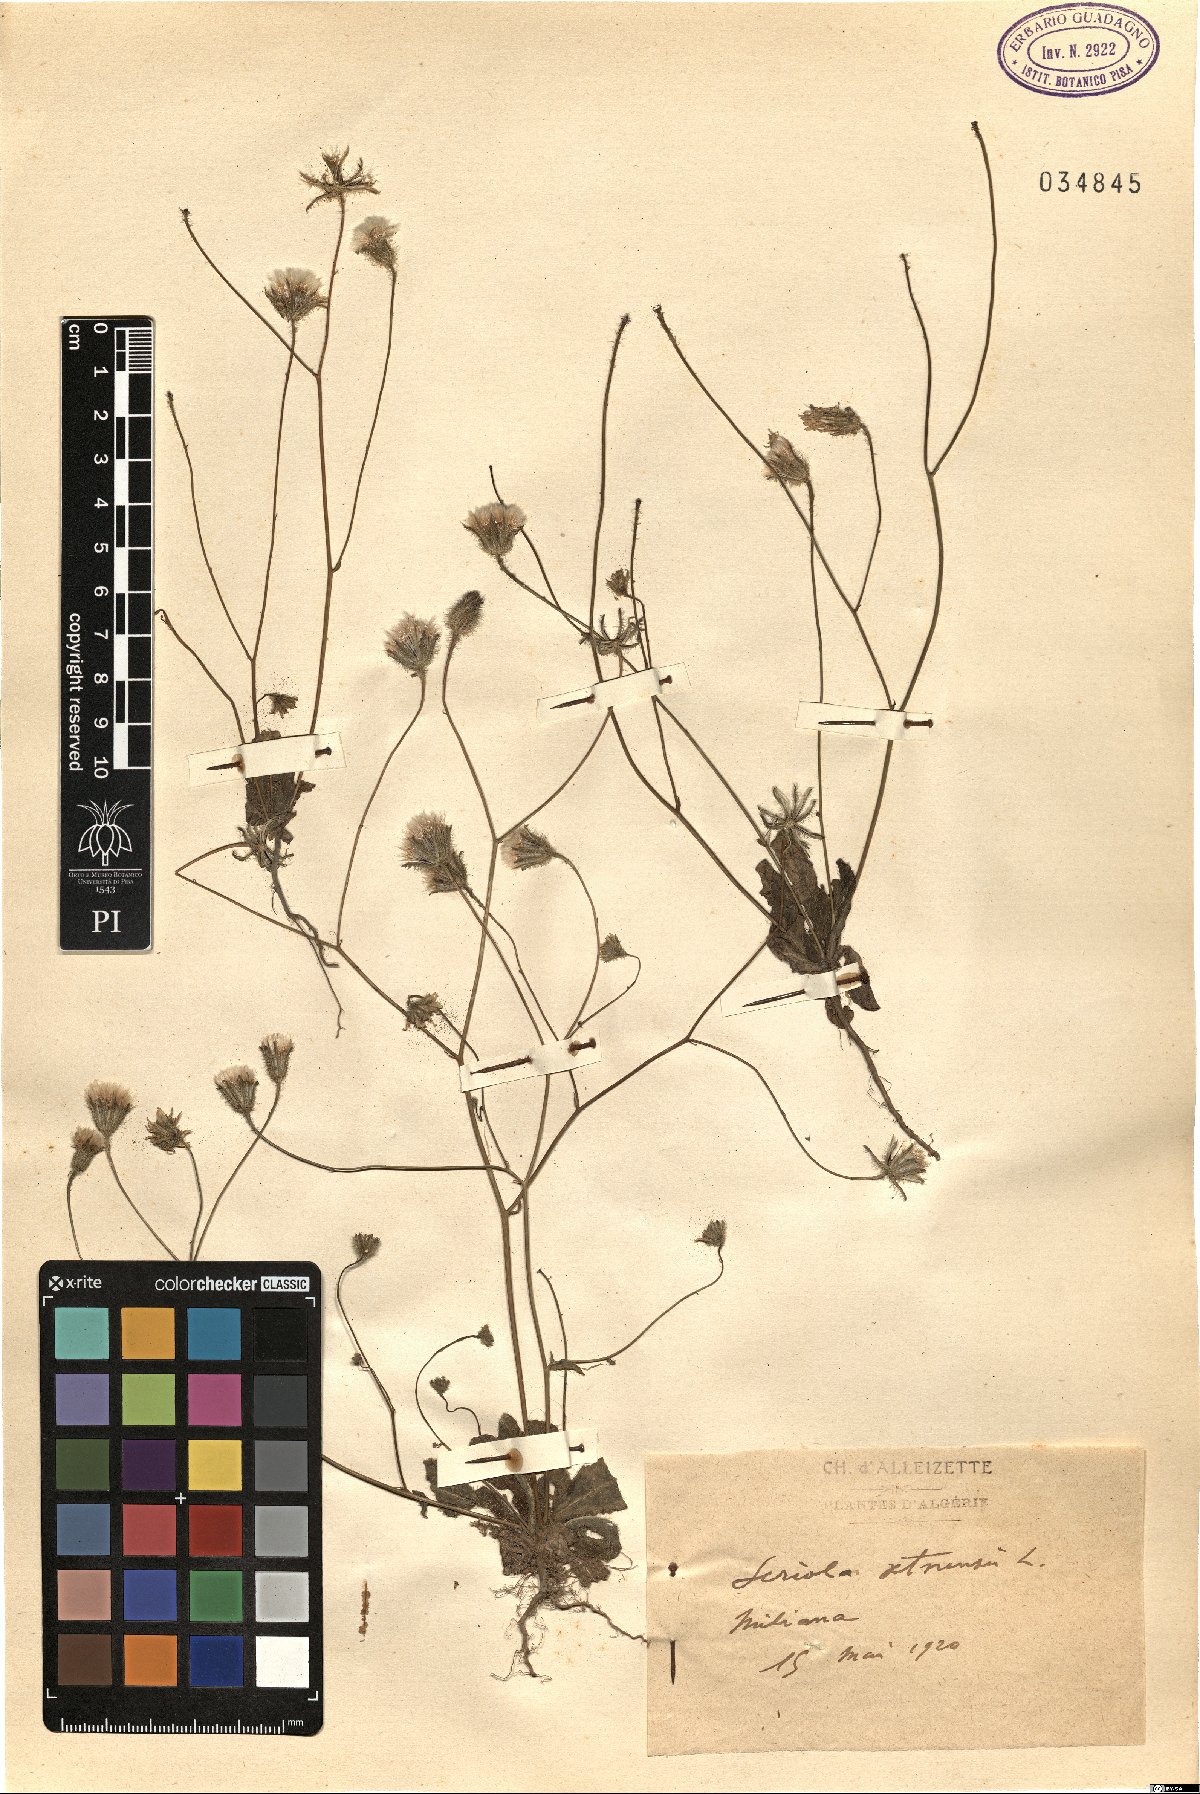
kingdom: Plantae
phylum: Tracheophyta
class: Magnoliopsida
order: Asterales
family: Asteraceae
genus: Achyrophorus
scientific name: Achyrophorus valdesii
